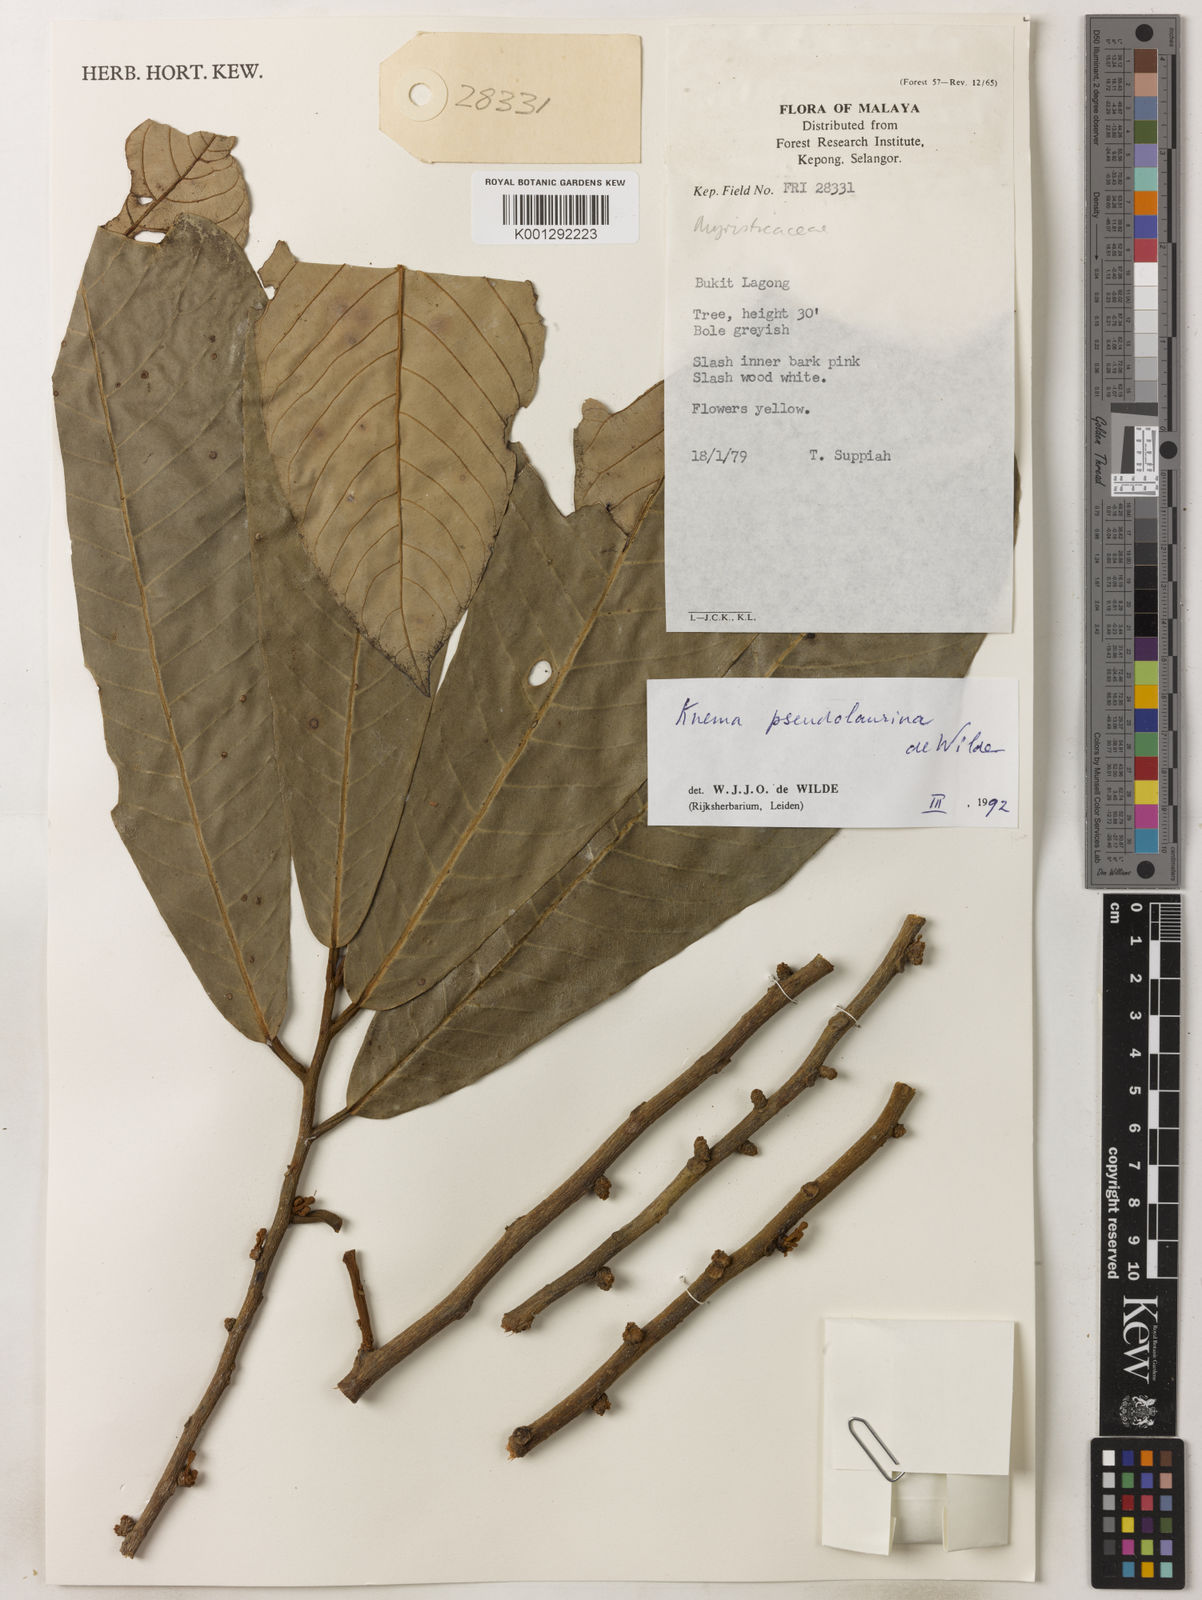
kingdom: Plantae
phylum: Tracheophyta
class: Magnoliopsida
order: Magnoliales
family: Myristicaceae
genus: Knema
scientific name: Knema pseudolaurina
